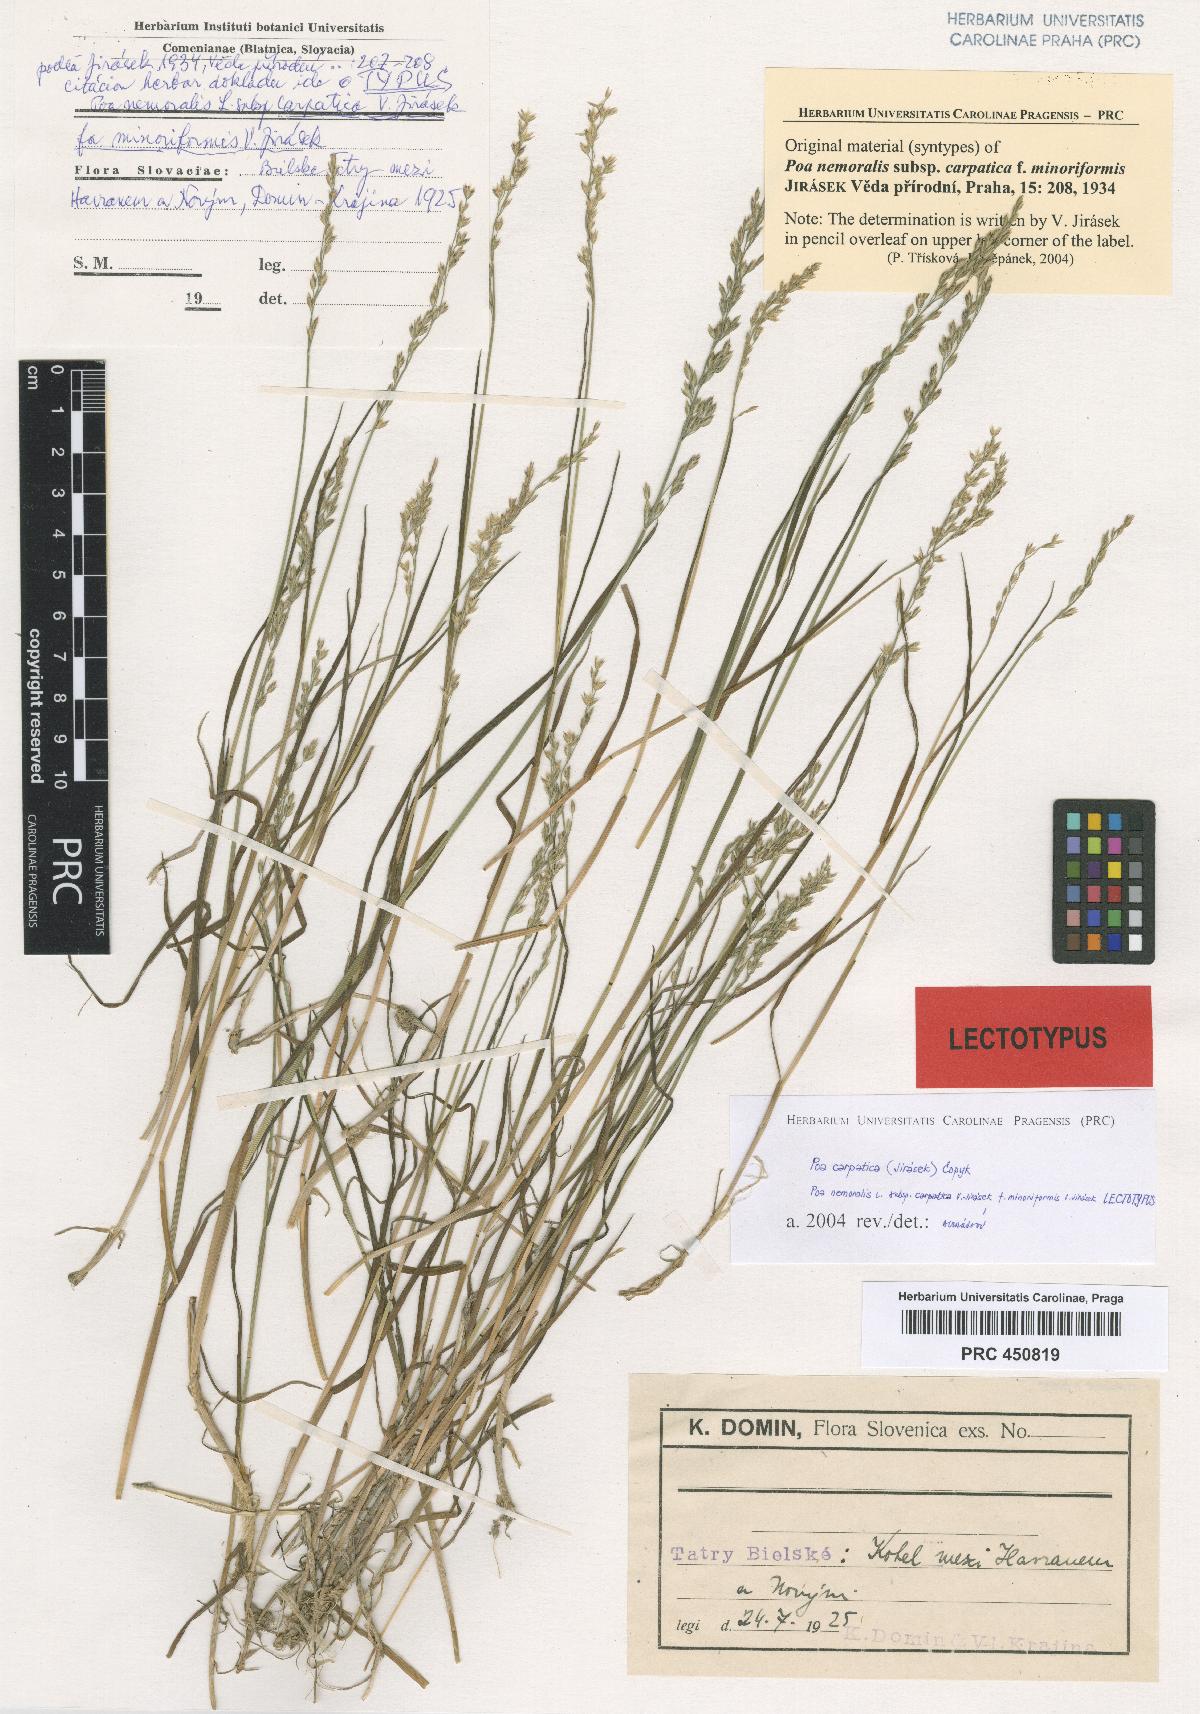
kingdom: Plantae
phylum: Tracheophyta
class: Liliopsida
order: Poales
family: Poaceae
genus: Poa
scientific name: Poa carpatica
